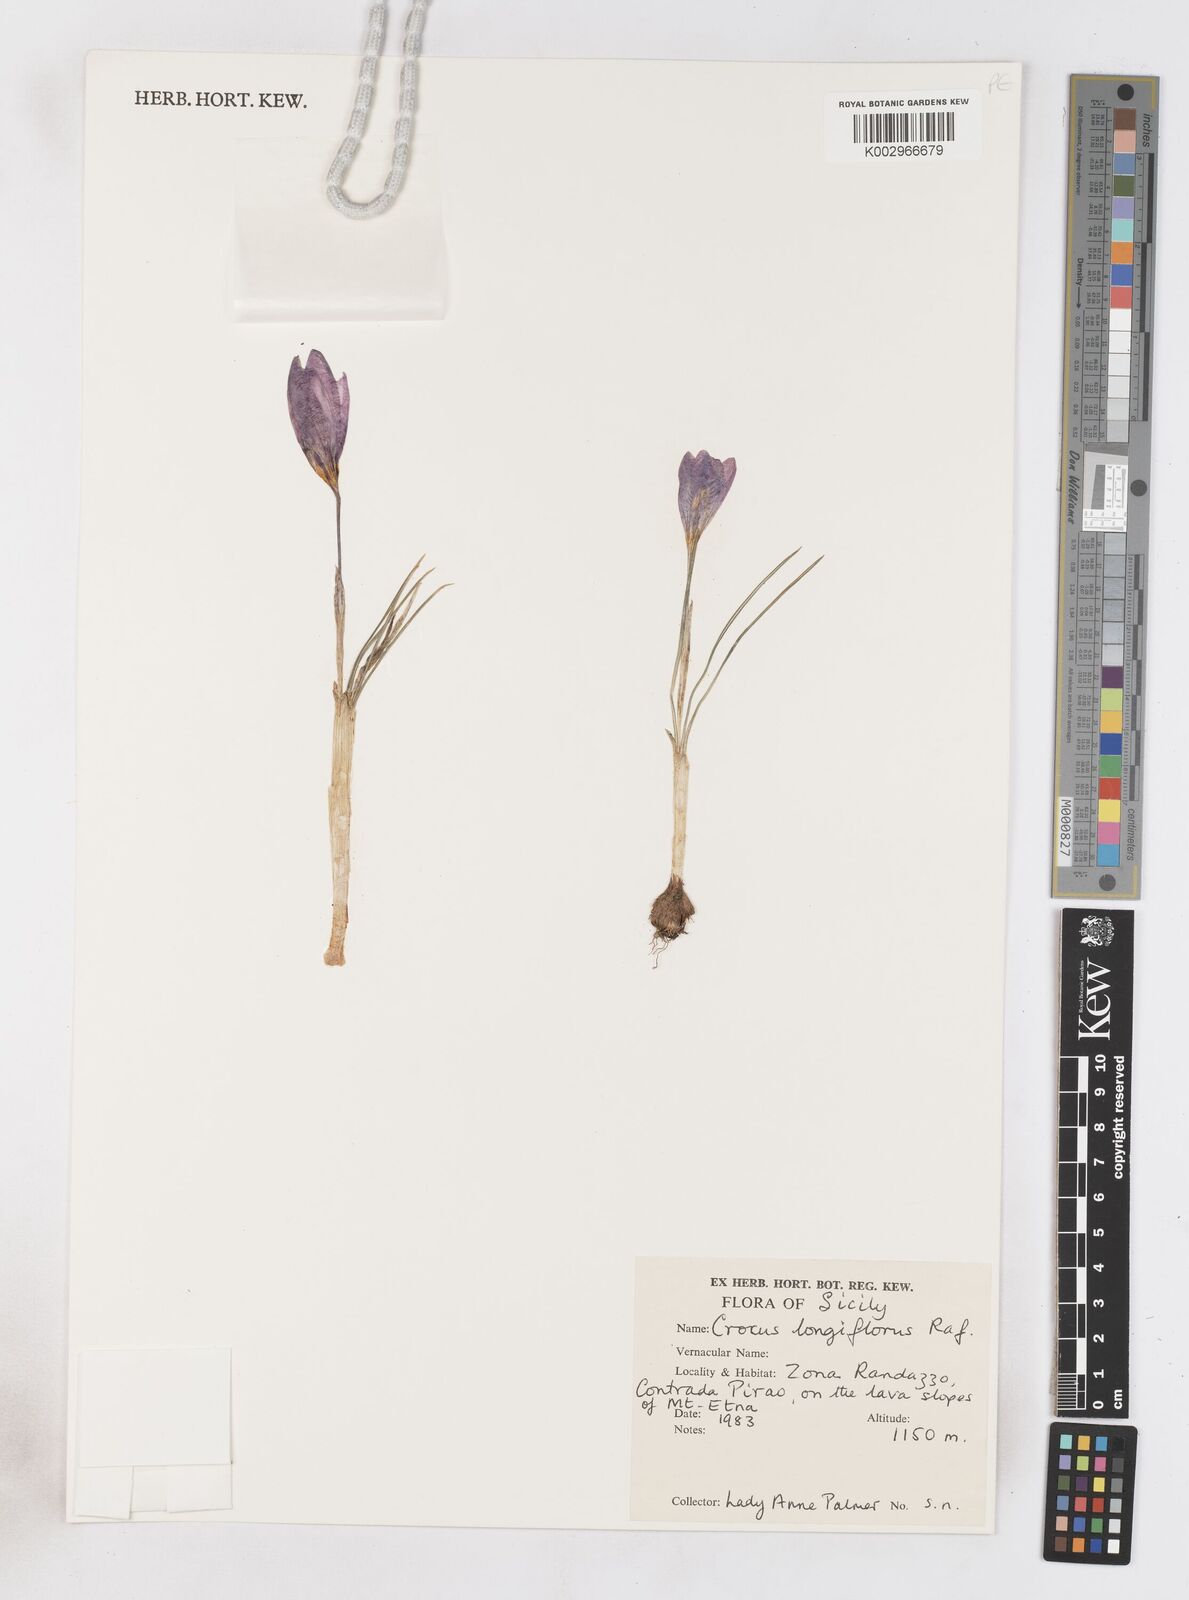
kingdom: Plantae
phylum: Tracheophyta
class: Liliopsida
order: Asparagales
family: Iridaceae
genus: Crocus
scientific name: Crocus longiflorus
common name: Italian crocus
